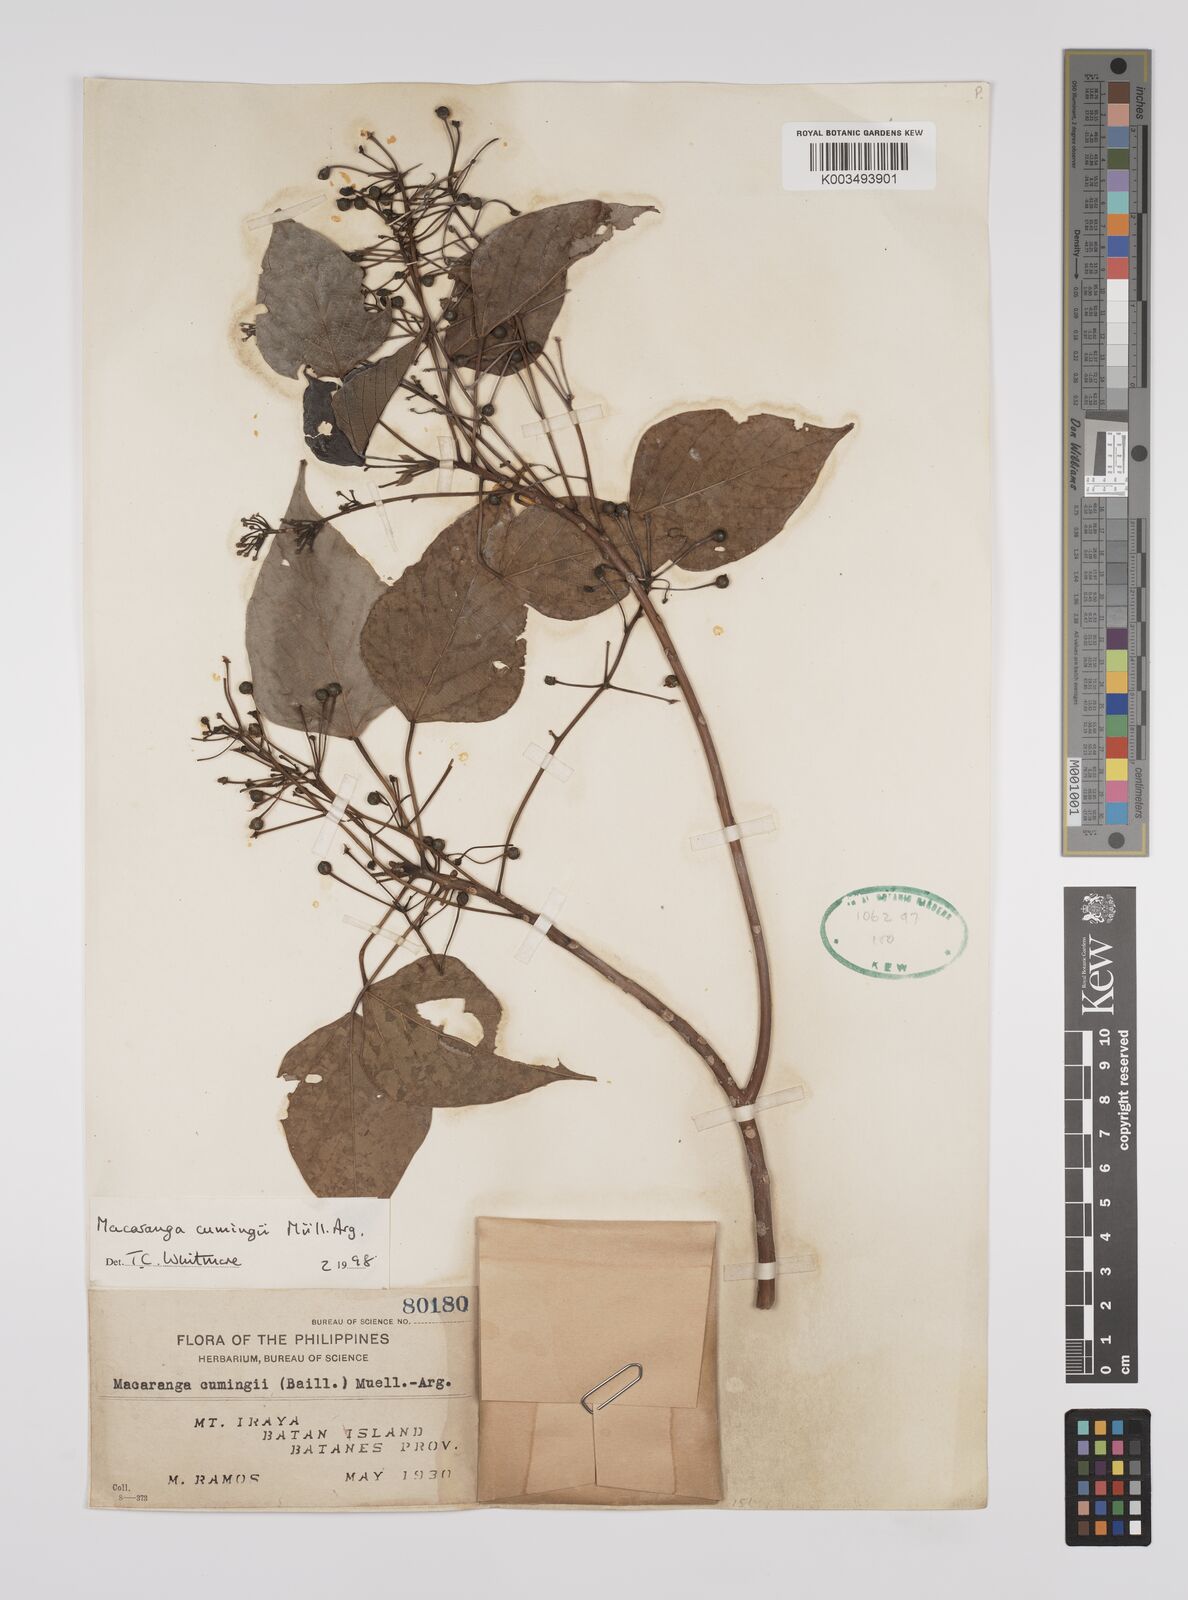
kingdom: Plantae
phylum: Tracheophyta
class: Magnoliopsida
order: Malpighiales
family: Euphorbiaceae
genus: Macaranga
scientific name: Macaranga cumingii
